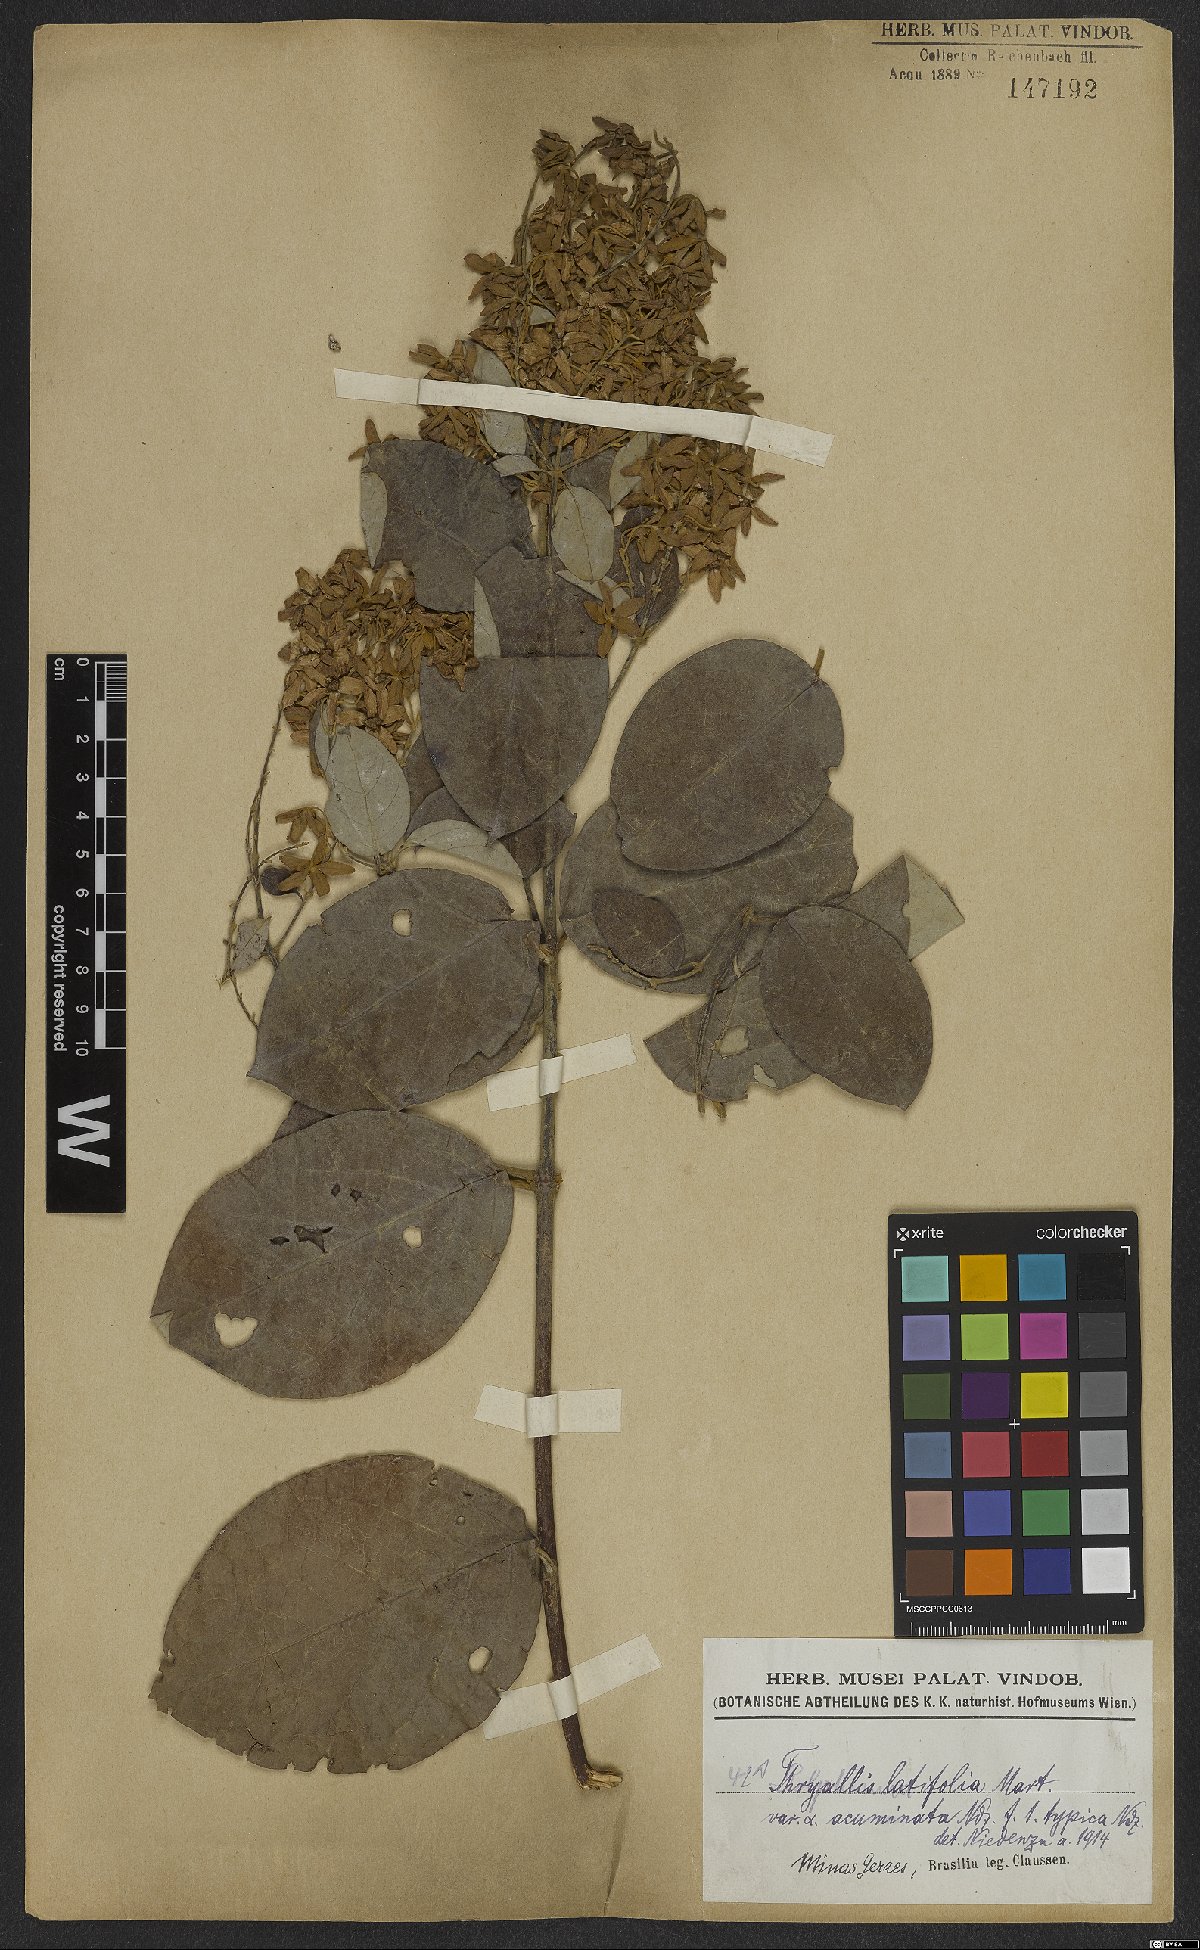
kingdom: Plantae
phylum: Tracheophyta
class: Magnoliopsida
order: Malpighiales
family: Malpighiaceae
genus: Thryallis
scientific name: Thryallis latifolia
